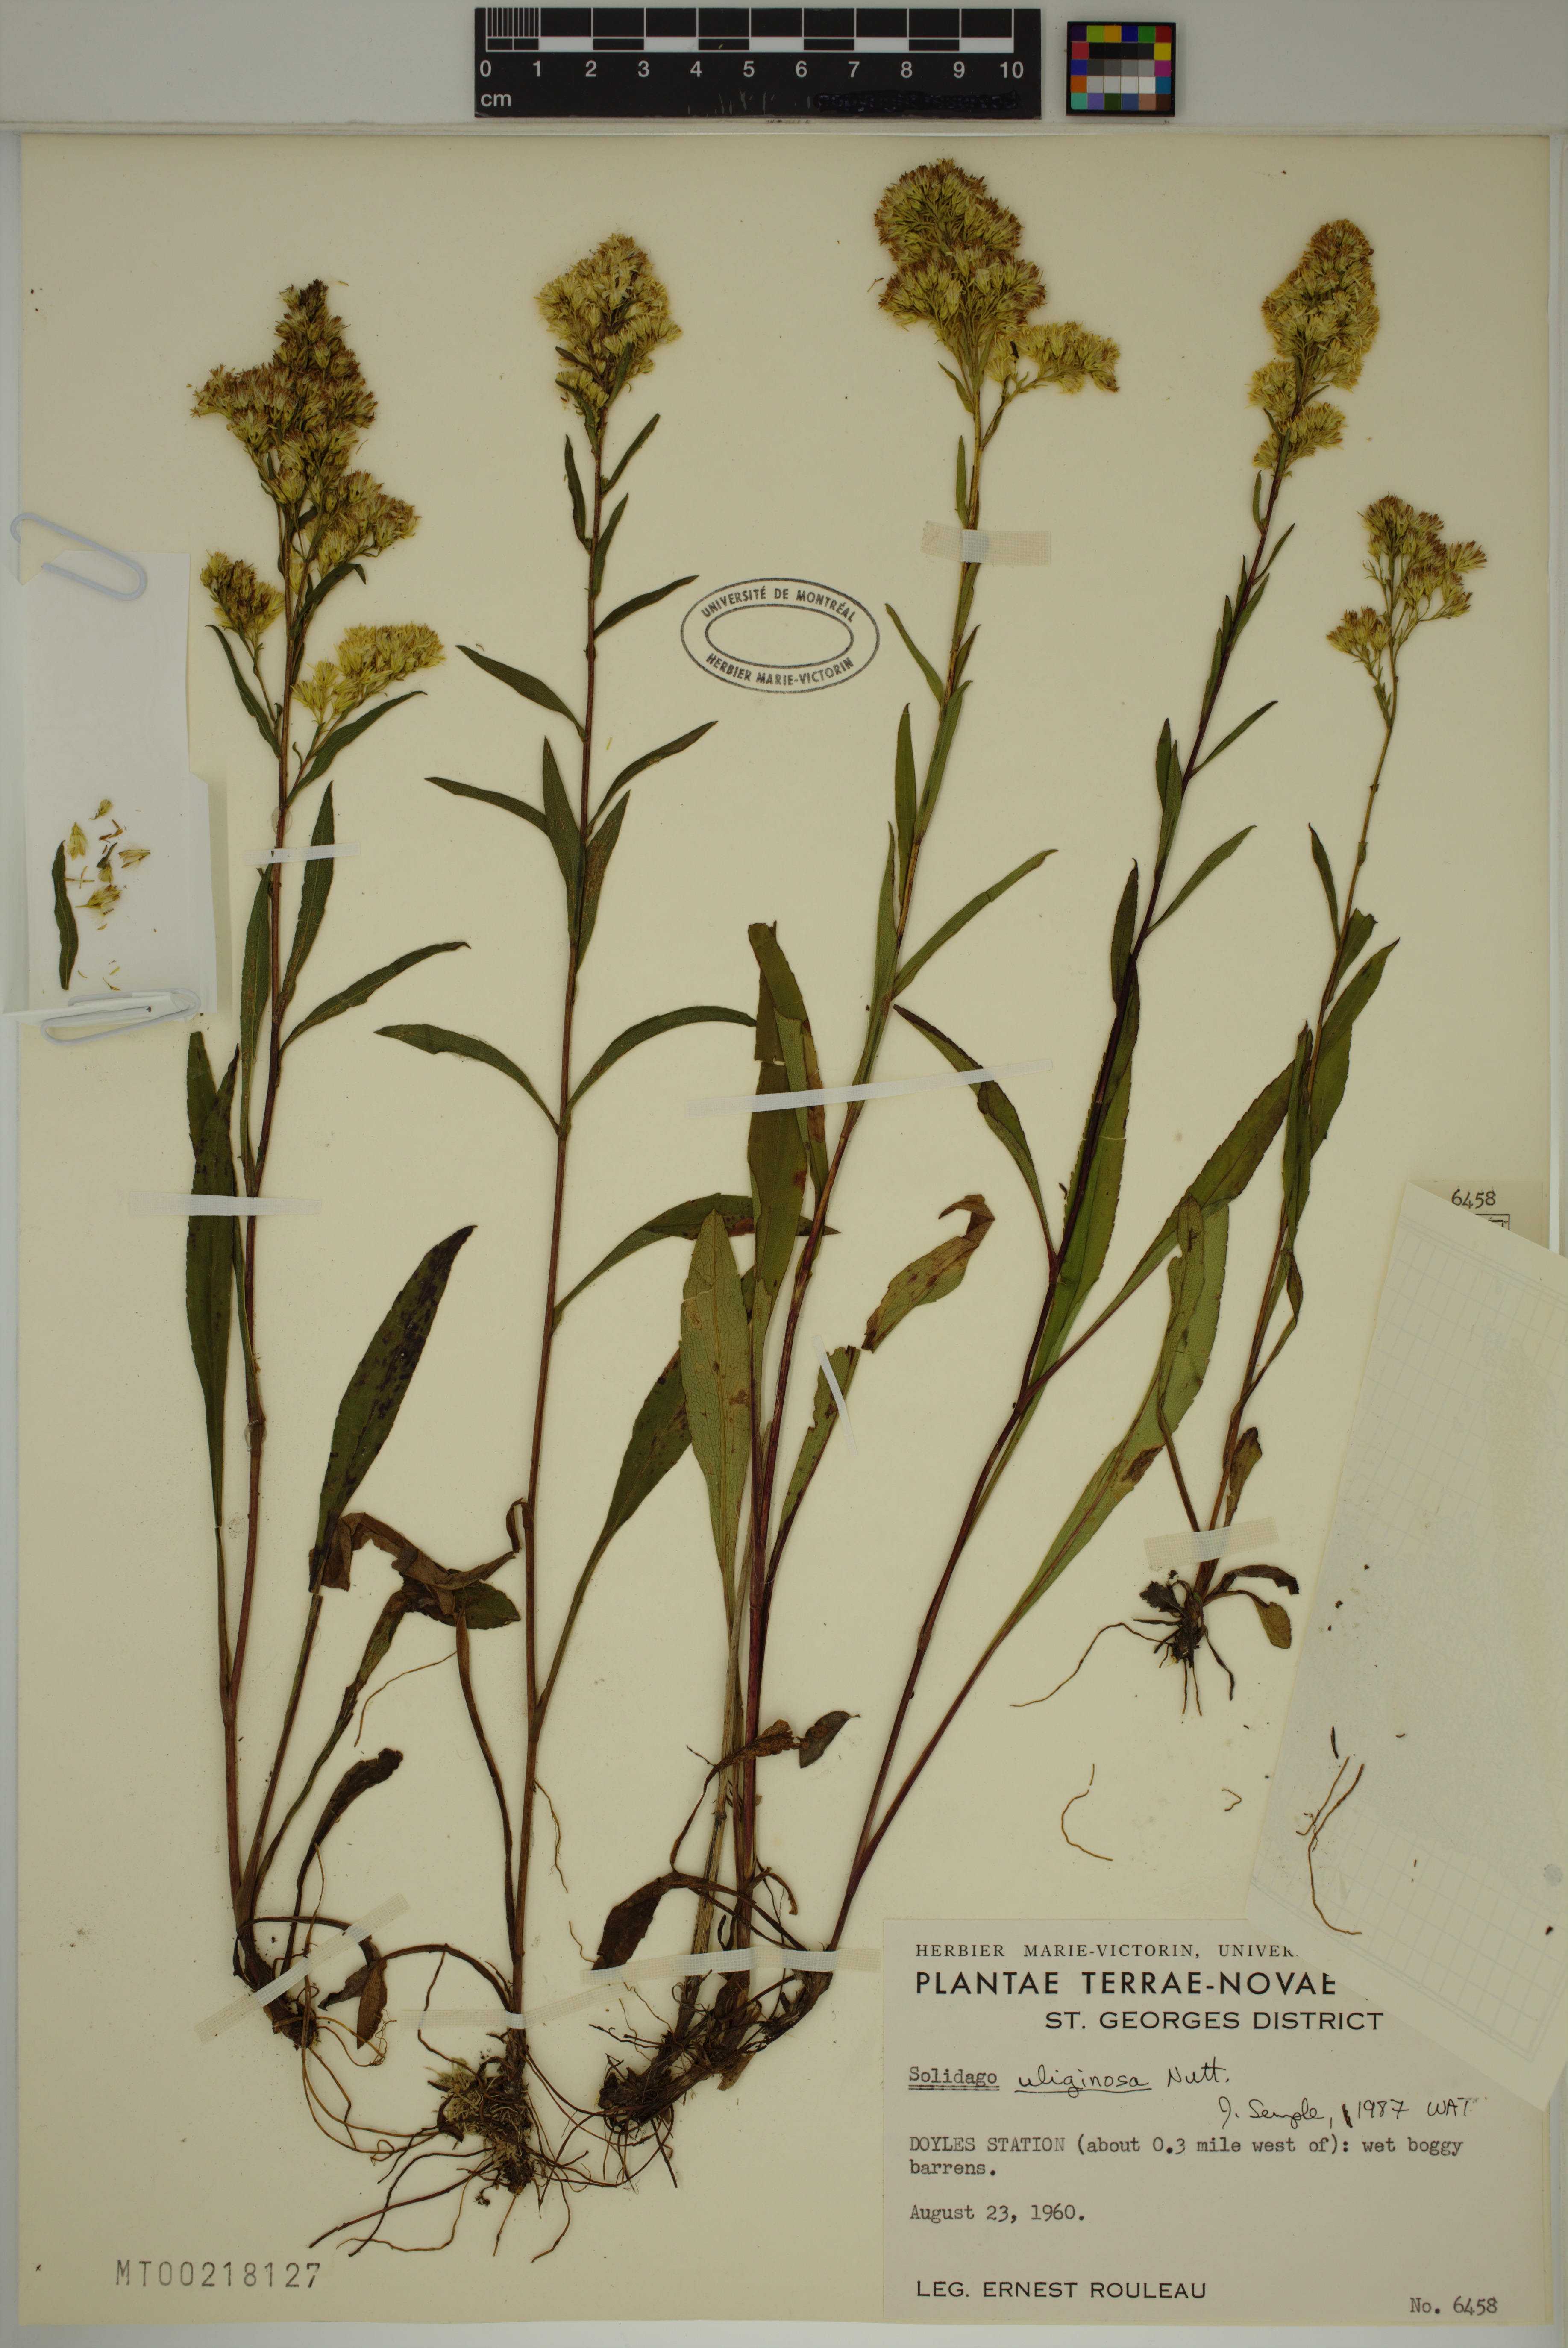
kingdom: Plantae
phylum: Tracheophyta
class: Magnoliopsida
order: Asterales
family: Asteraceae
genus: Solidago
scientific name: Solidago uliginosa
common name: Bog goldenrod
